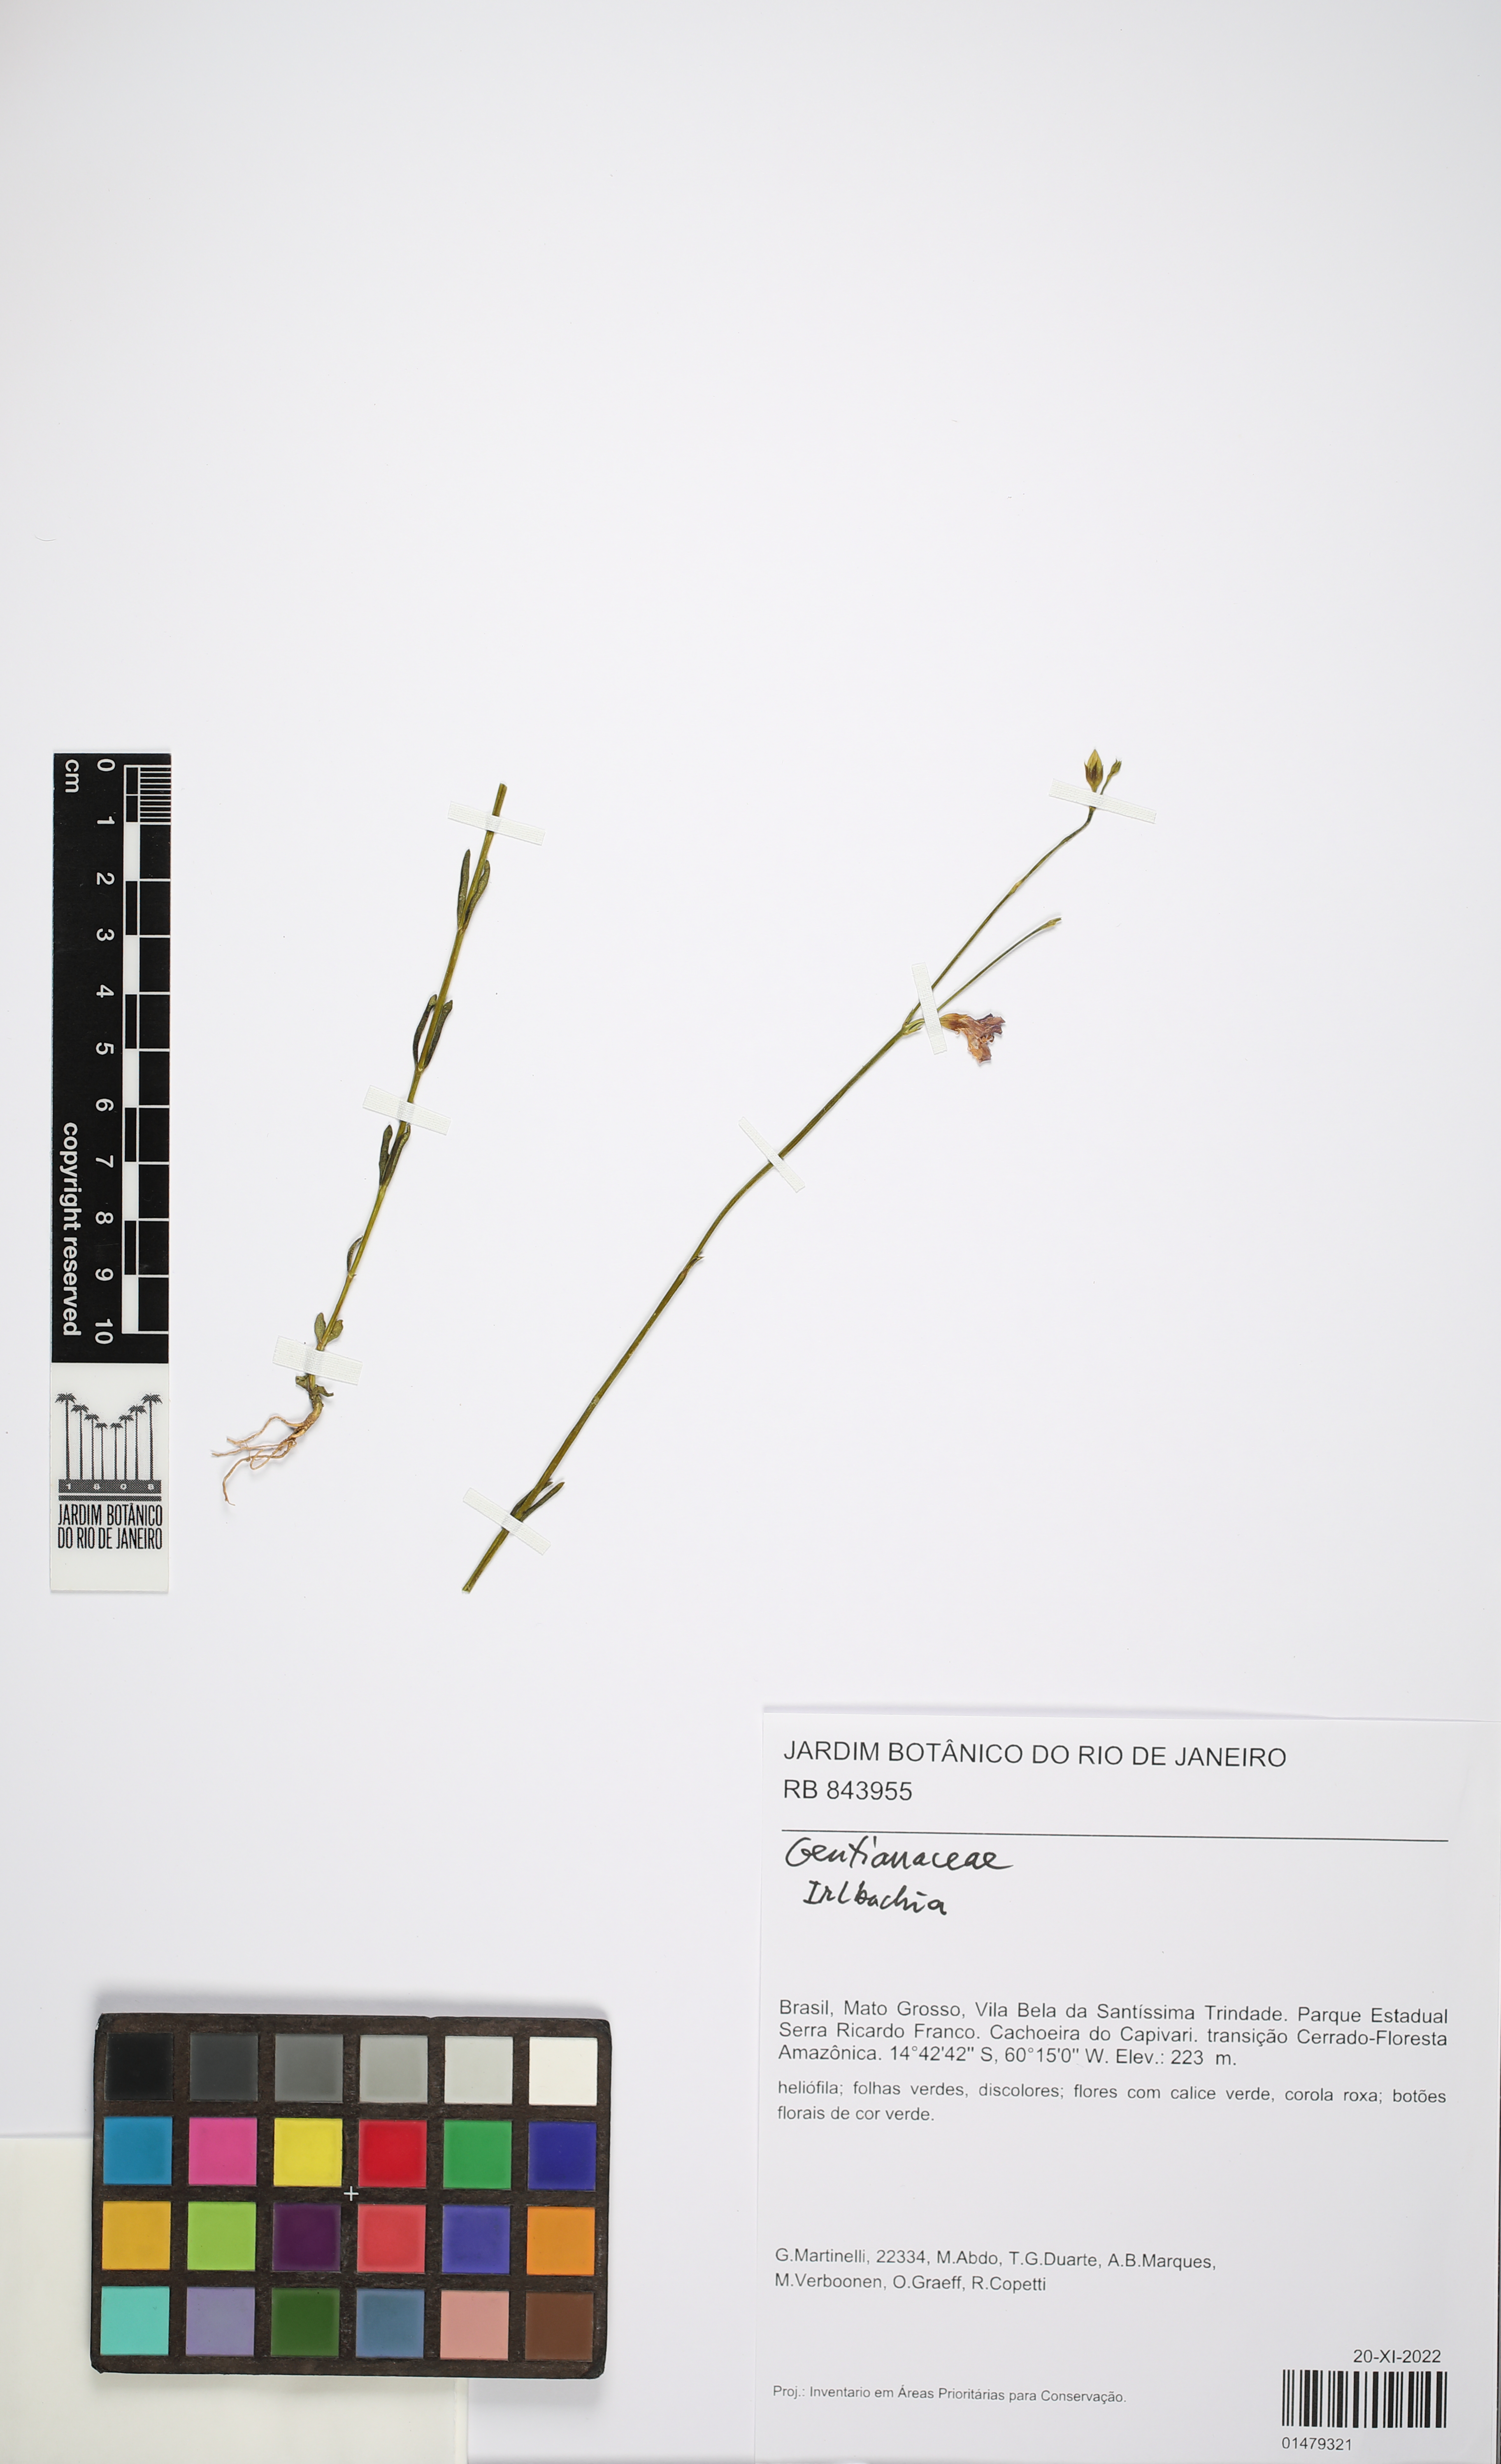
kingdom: Plantae
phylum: Tracheophyta
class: Magnoliopsida
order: Gentianales
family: Gentianaceae
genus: Irlbachia
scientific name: Irlbachia
